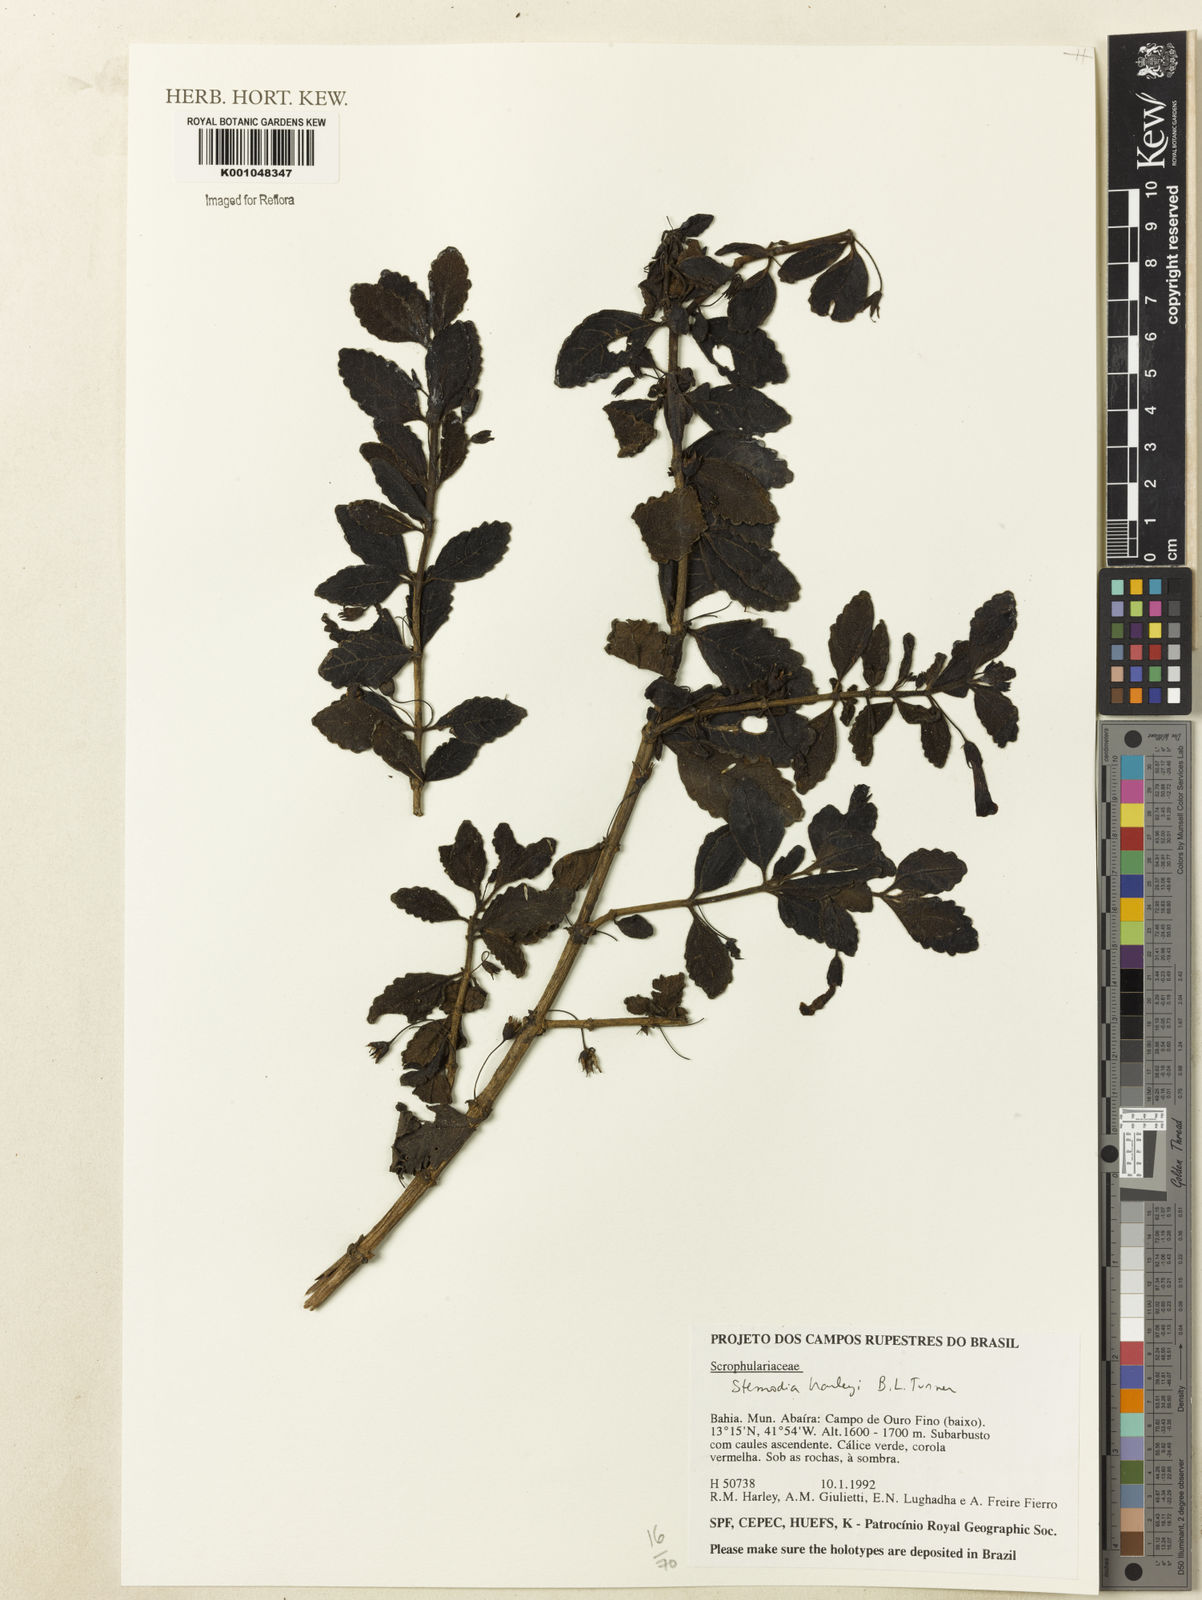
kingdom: Plantae
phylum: Tracheophyta
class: Magnoliopsida
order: Lamiales
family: Plantaginaceae
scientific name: Plantaginaceae
